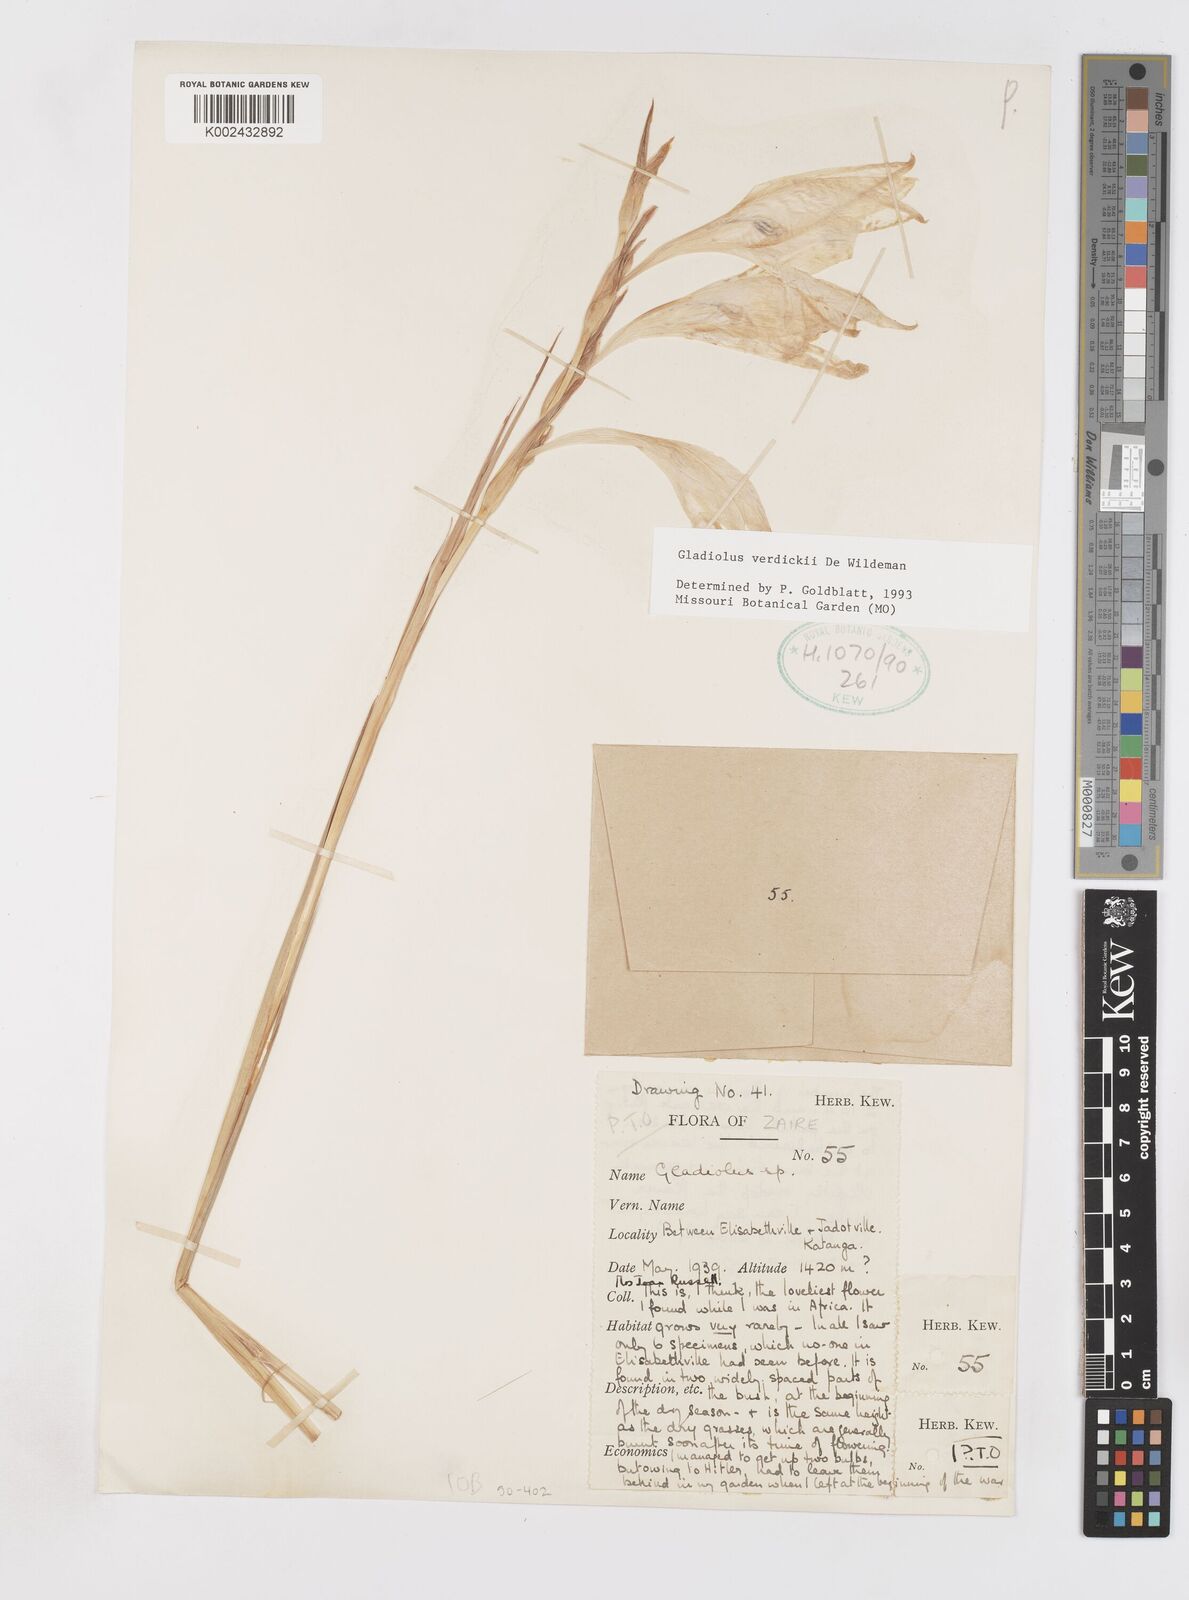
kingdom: Plantae
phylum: Tracheophyta
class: Liliopsida
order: Asparagales
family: Iridaceae
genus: Gladiolus
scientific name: Gladiolus verdickii
